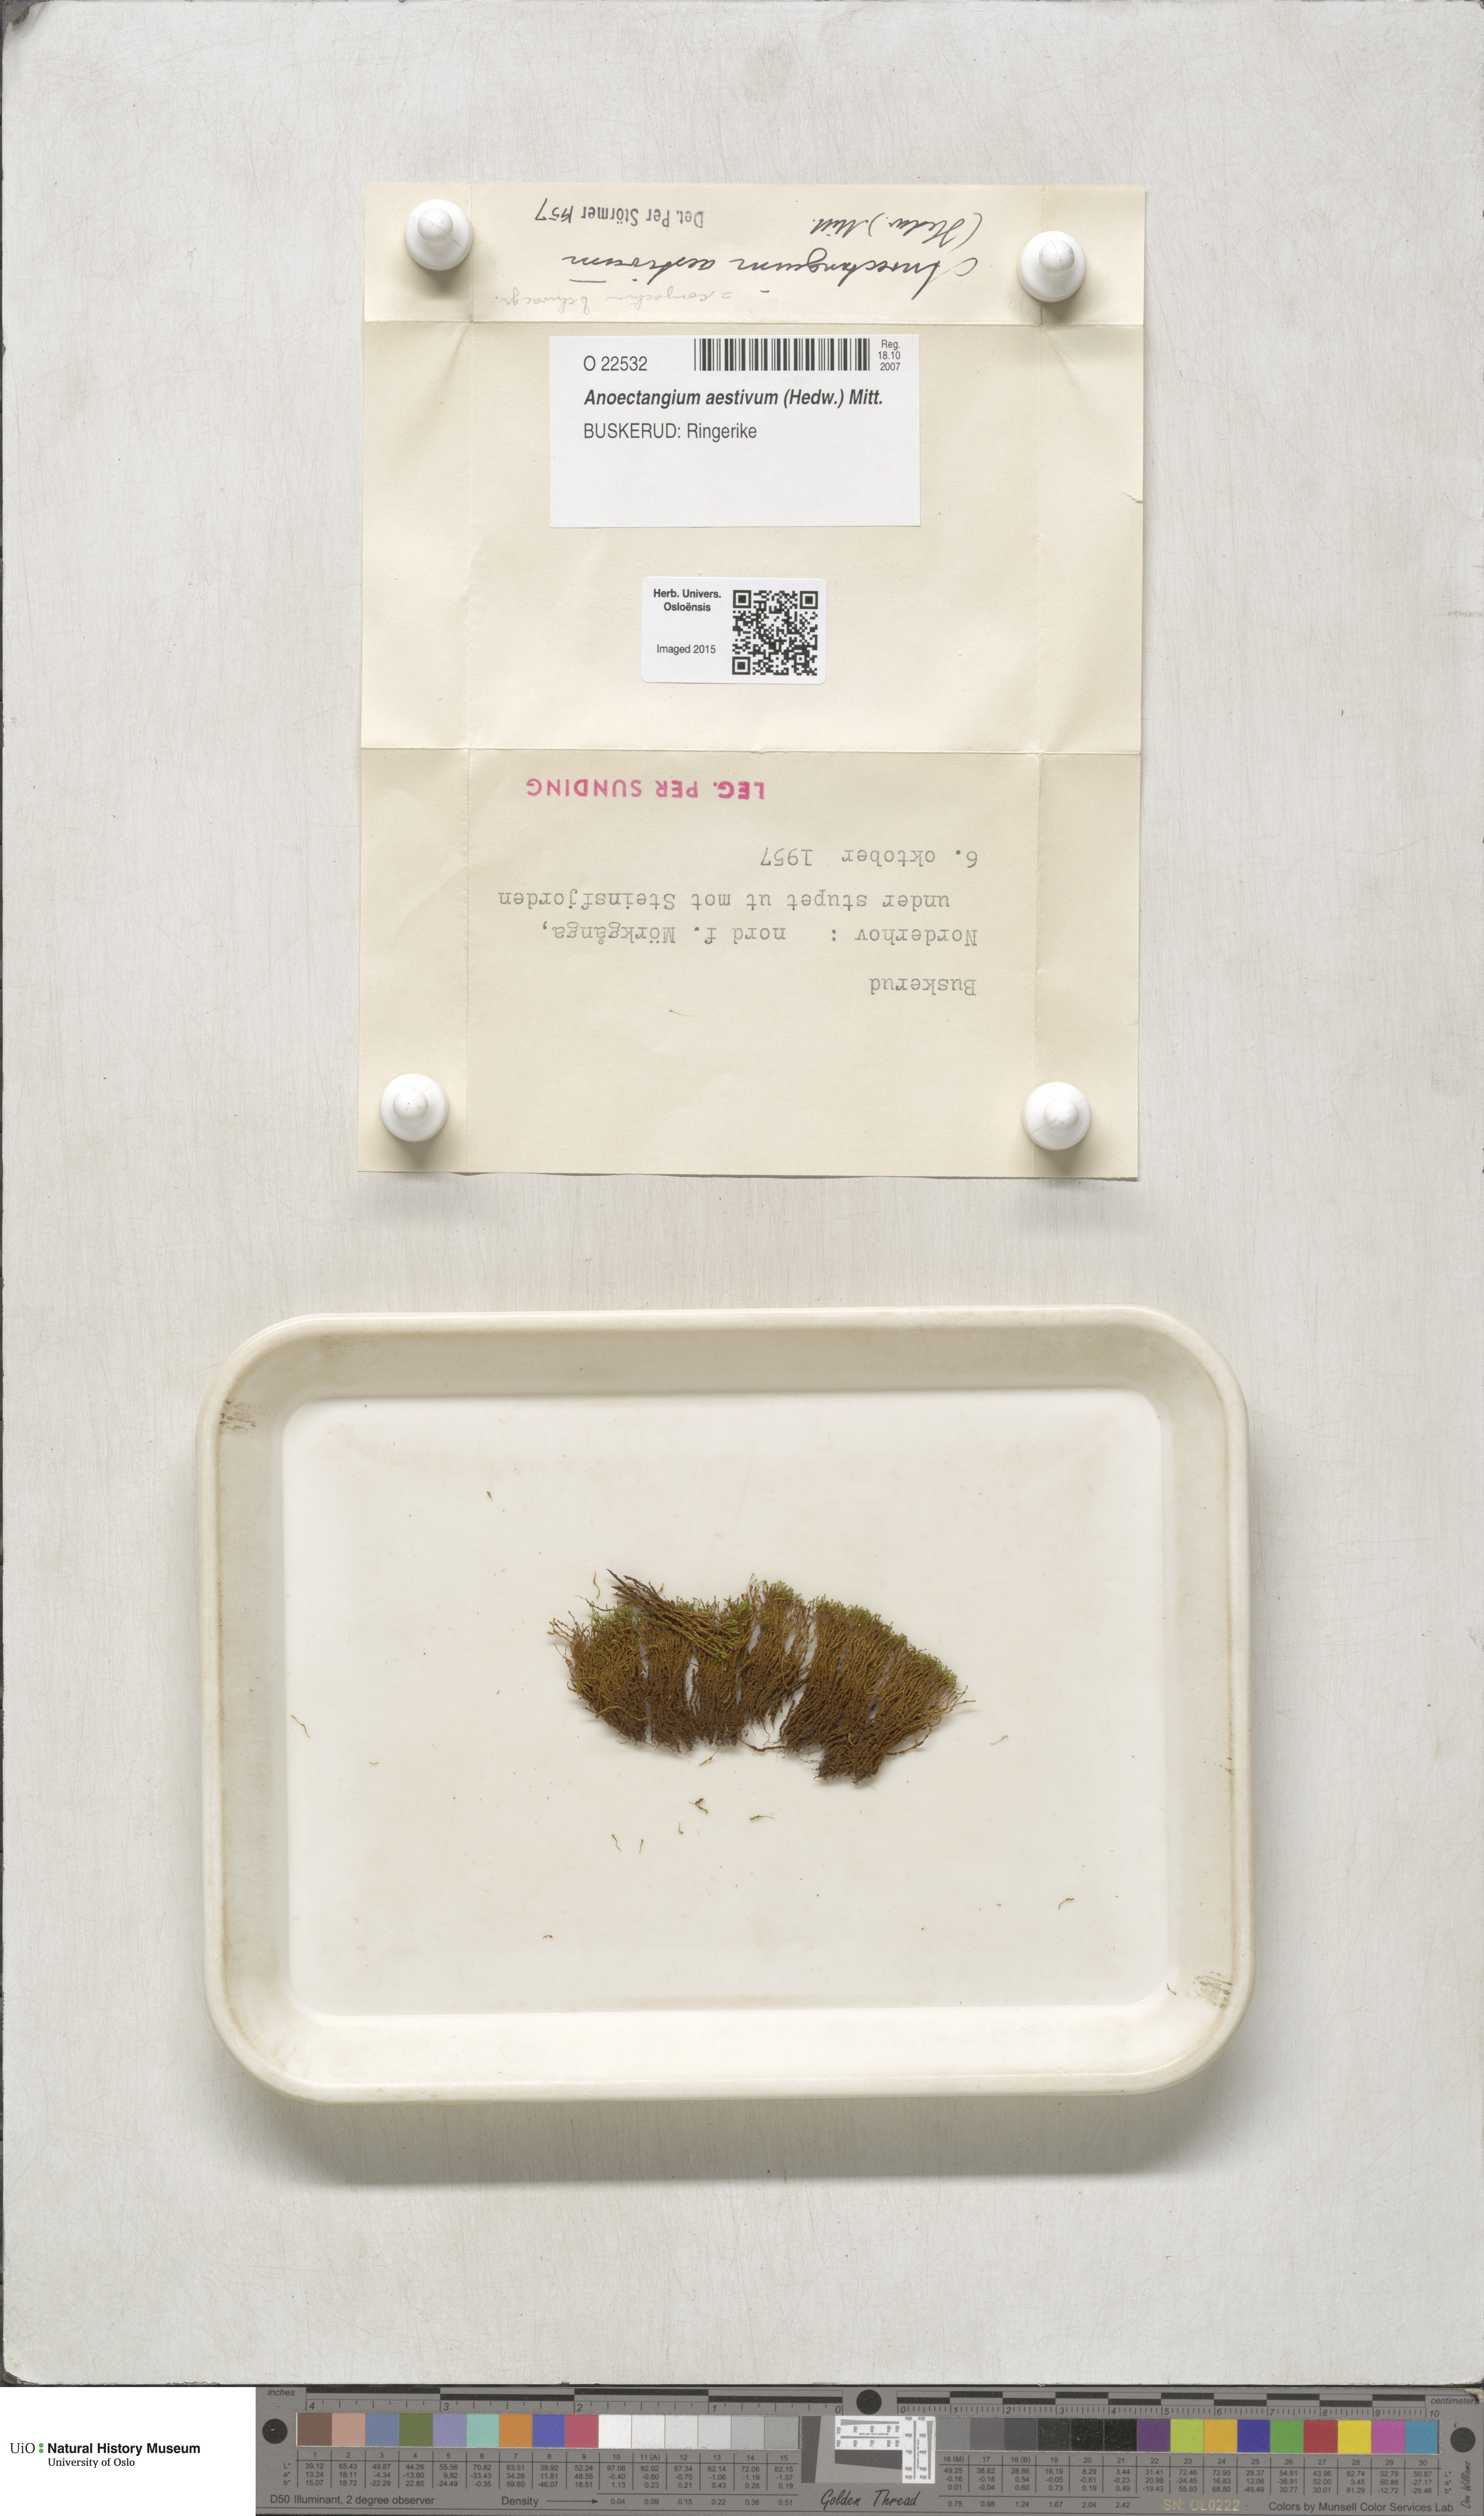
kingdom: Plantae
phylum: Bryophyta
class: Bryopsida
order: Pottiales
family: Pottiaceae
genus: Anoectangium
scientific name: Anoectangium aestivum
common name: Summer-moss
